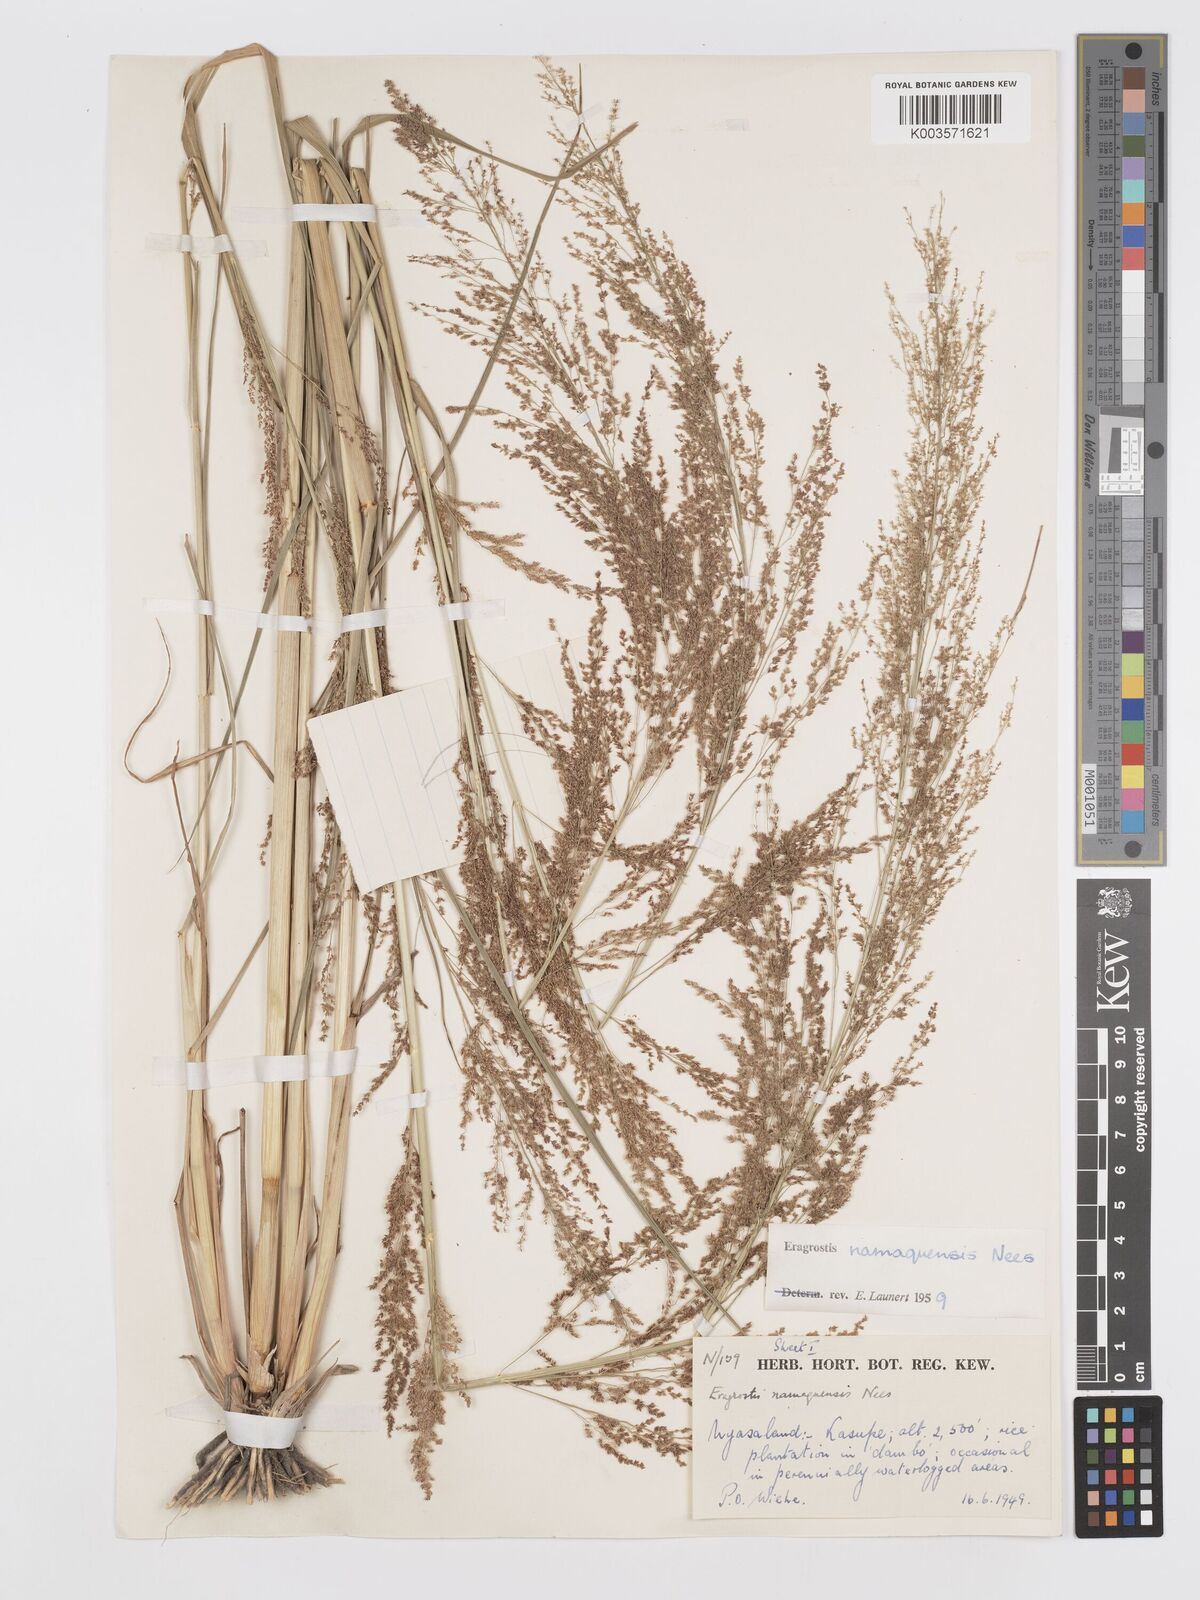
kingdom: Plantae
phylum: Tracheophyta
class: Liliopsida
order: Poales
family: Poaceae
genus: Eragrostis
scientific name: Eragrostis japonica
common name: Pond lovegrass
